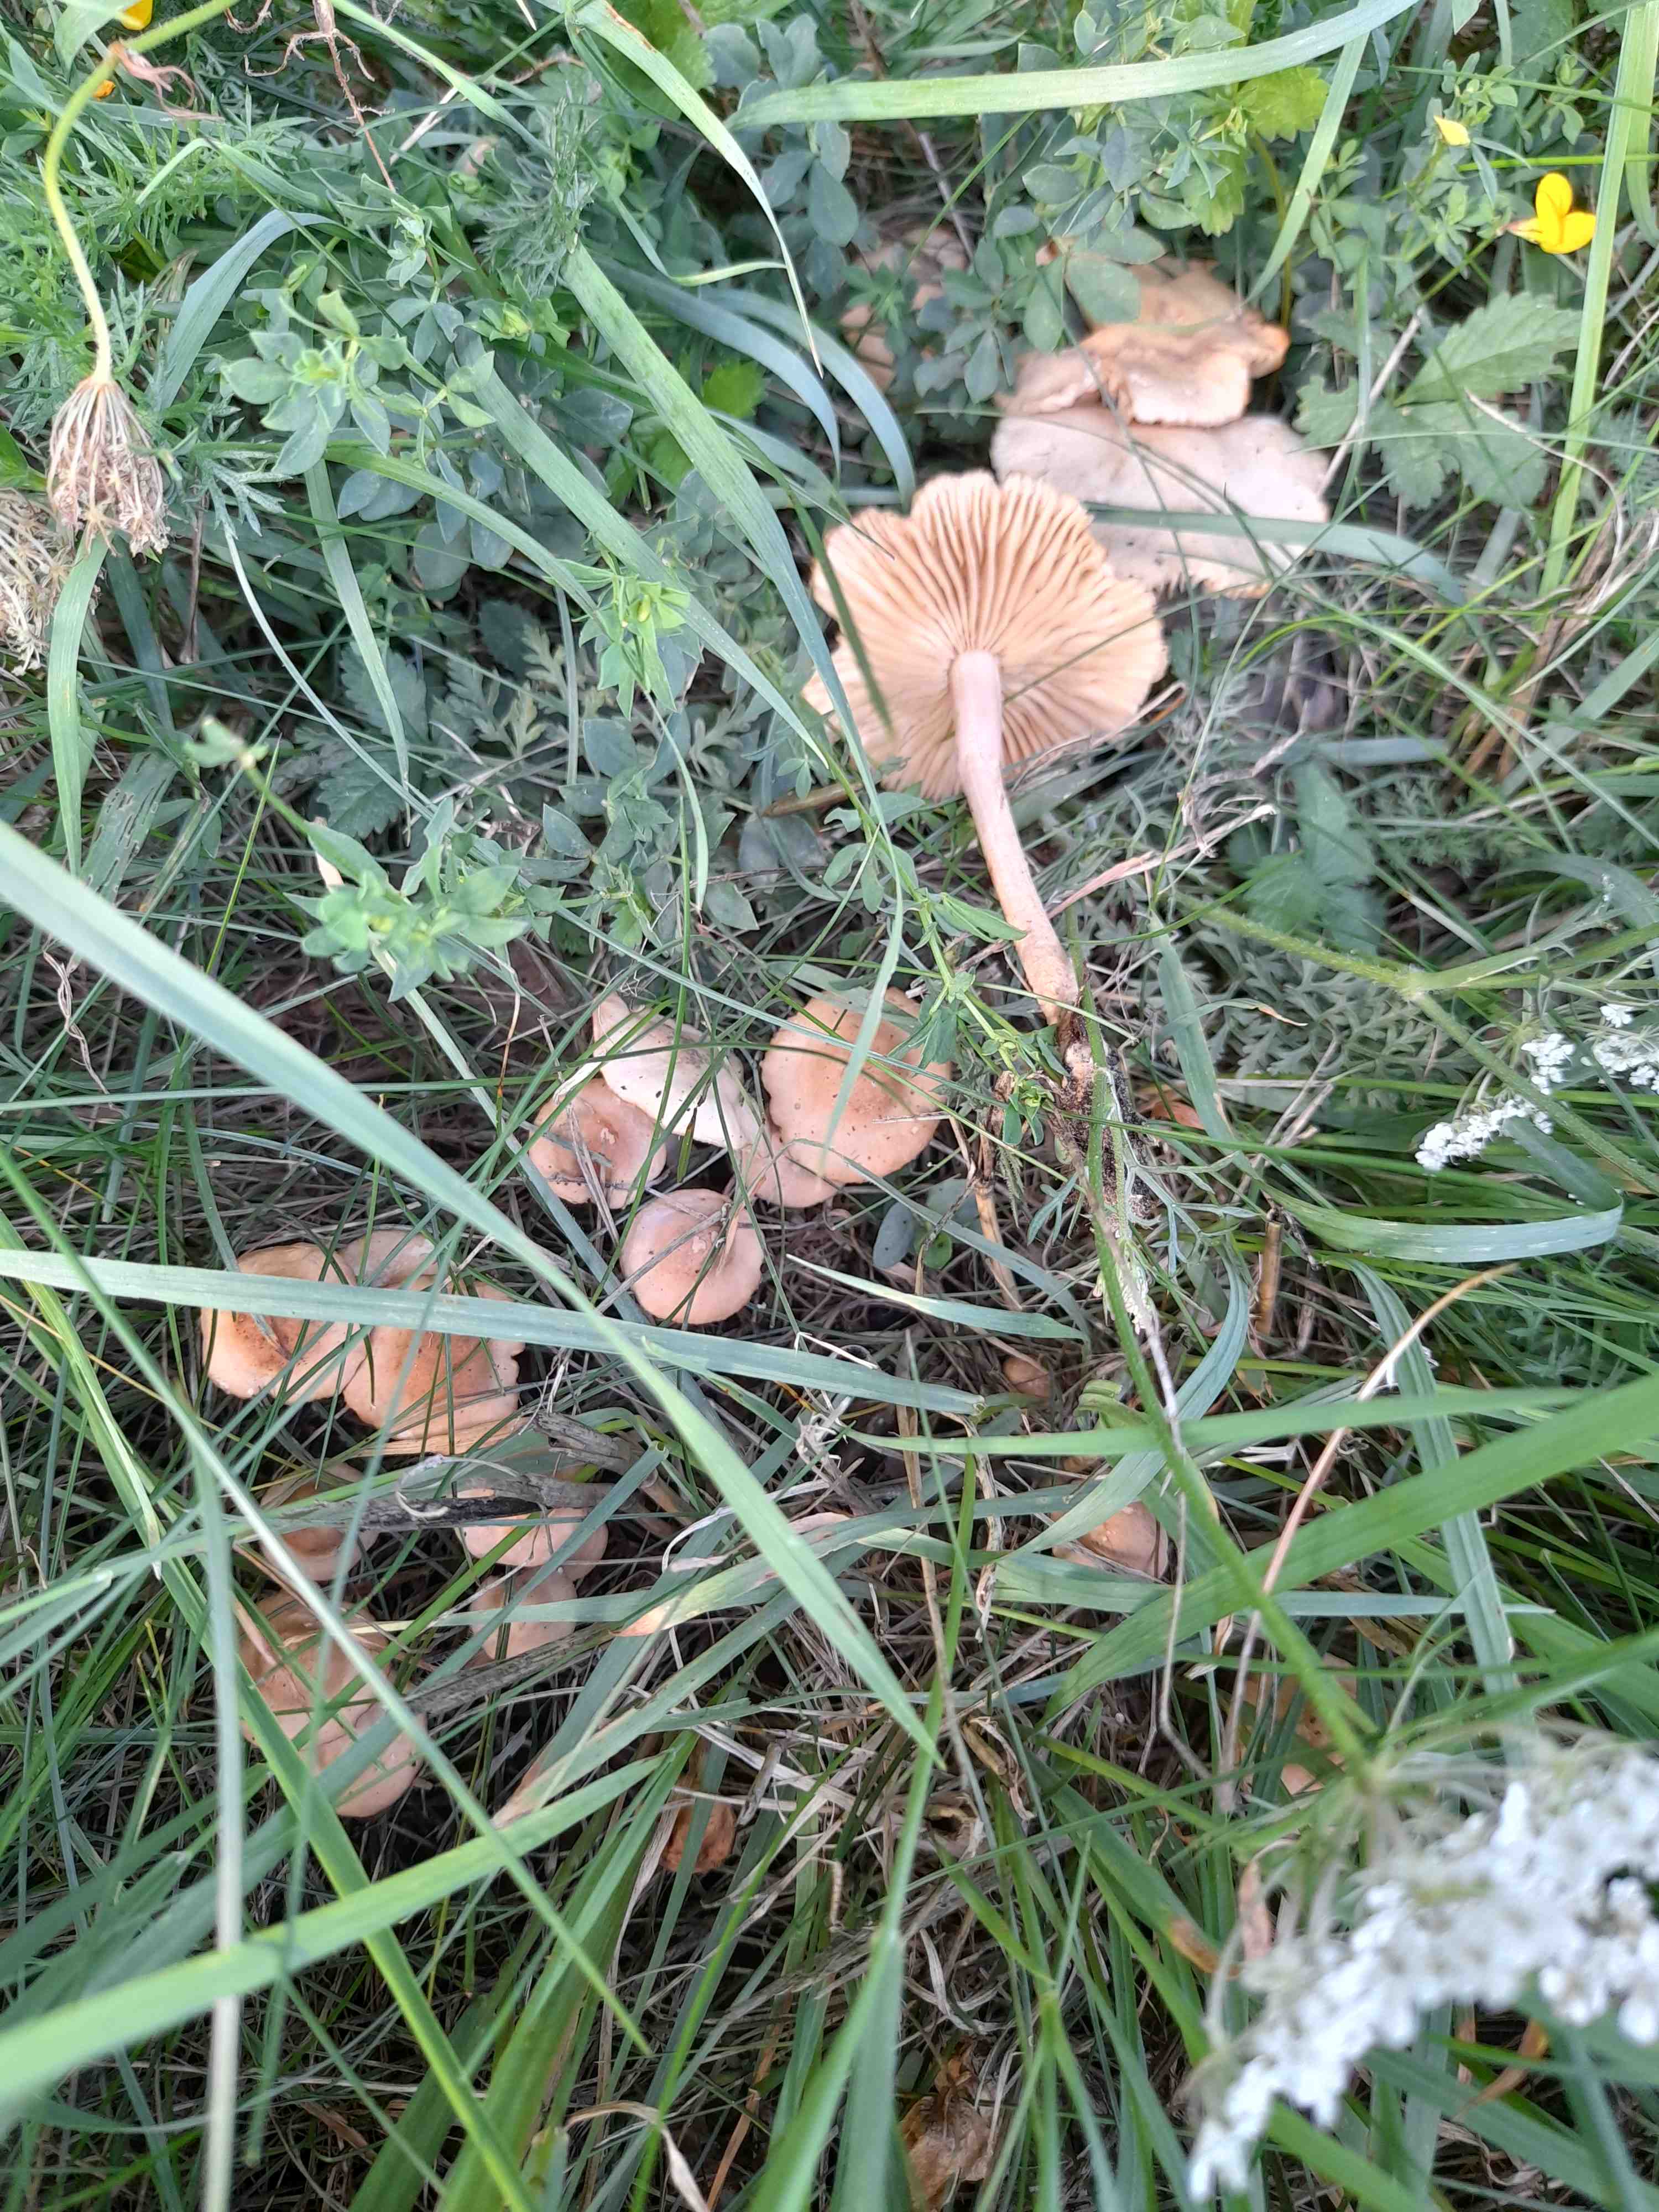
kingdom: Fungi
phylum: Basidiomycota
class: Agaricomycetes
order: Agaricales
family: Marasmiaceae
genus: Marasmius
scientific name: Marasmius oreades
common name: elledans-bruskhat
